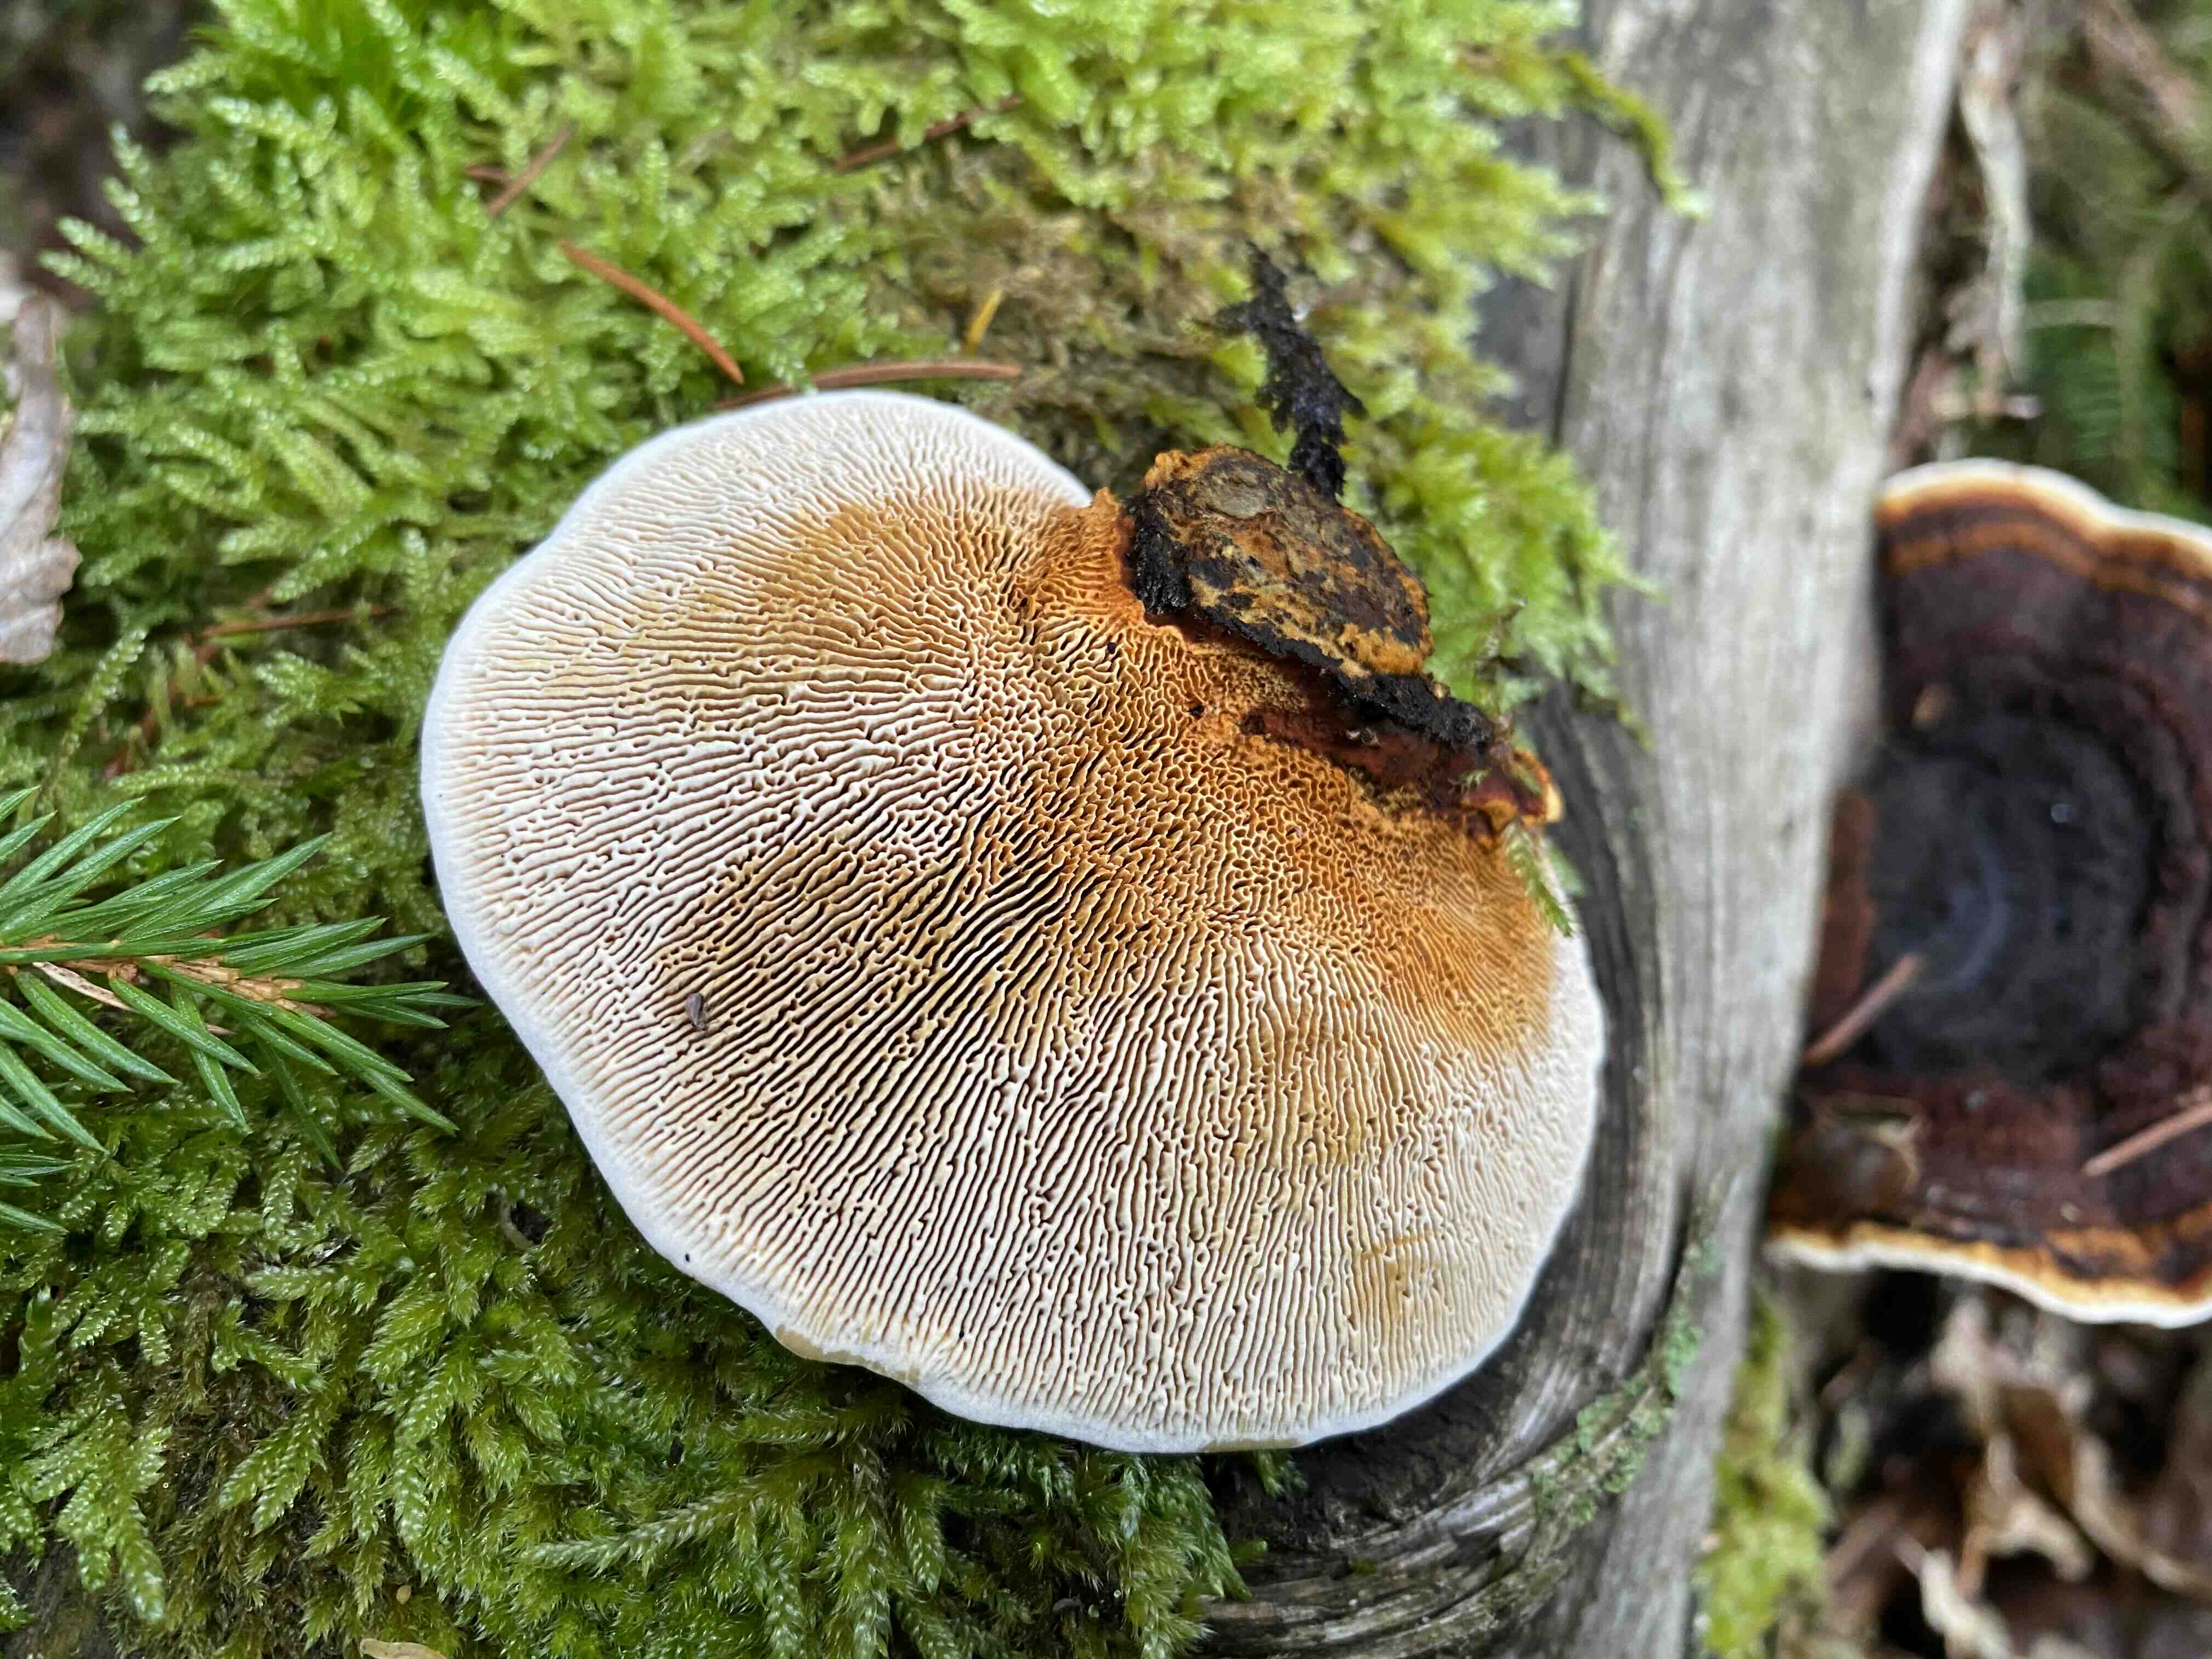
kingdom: Fungi
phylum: Basidiomycota
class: Agaricomycetes
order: Gloeophyllales
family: Gloeophyllaceae
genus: Gloeophyllum
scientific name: Gloeophyllum sepiarium
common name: fyrre-korkhat
